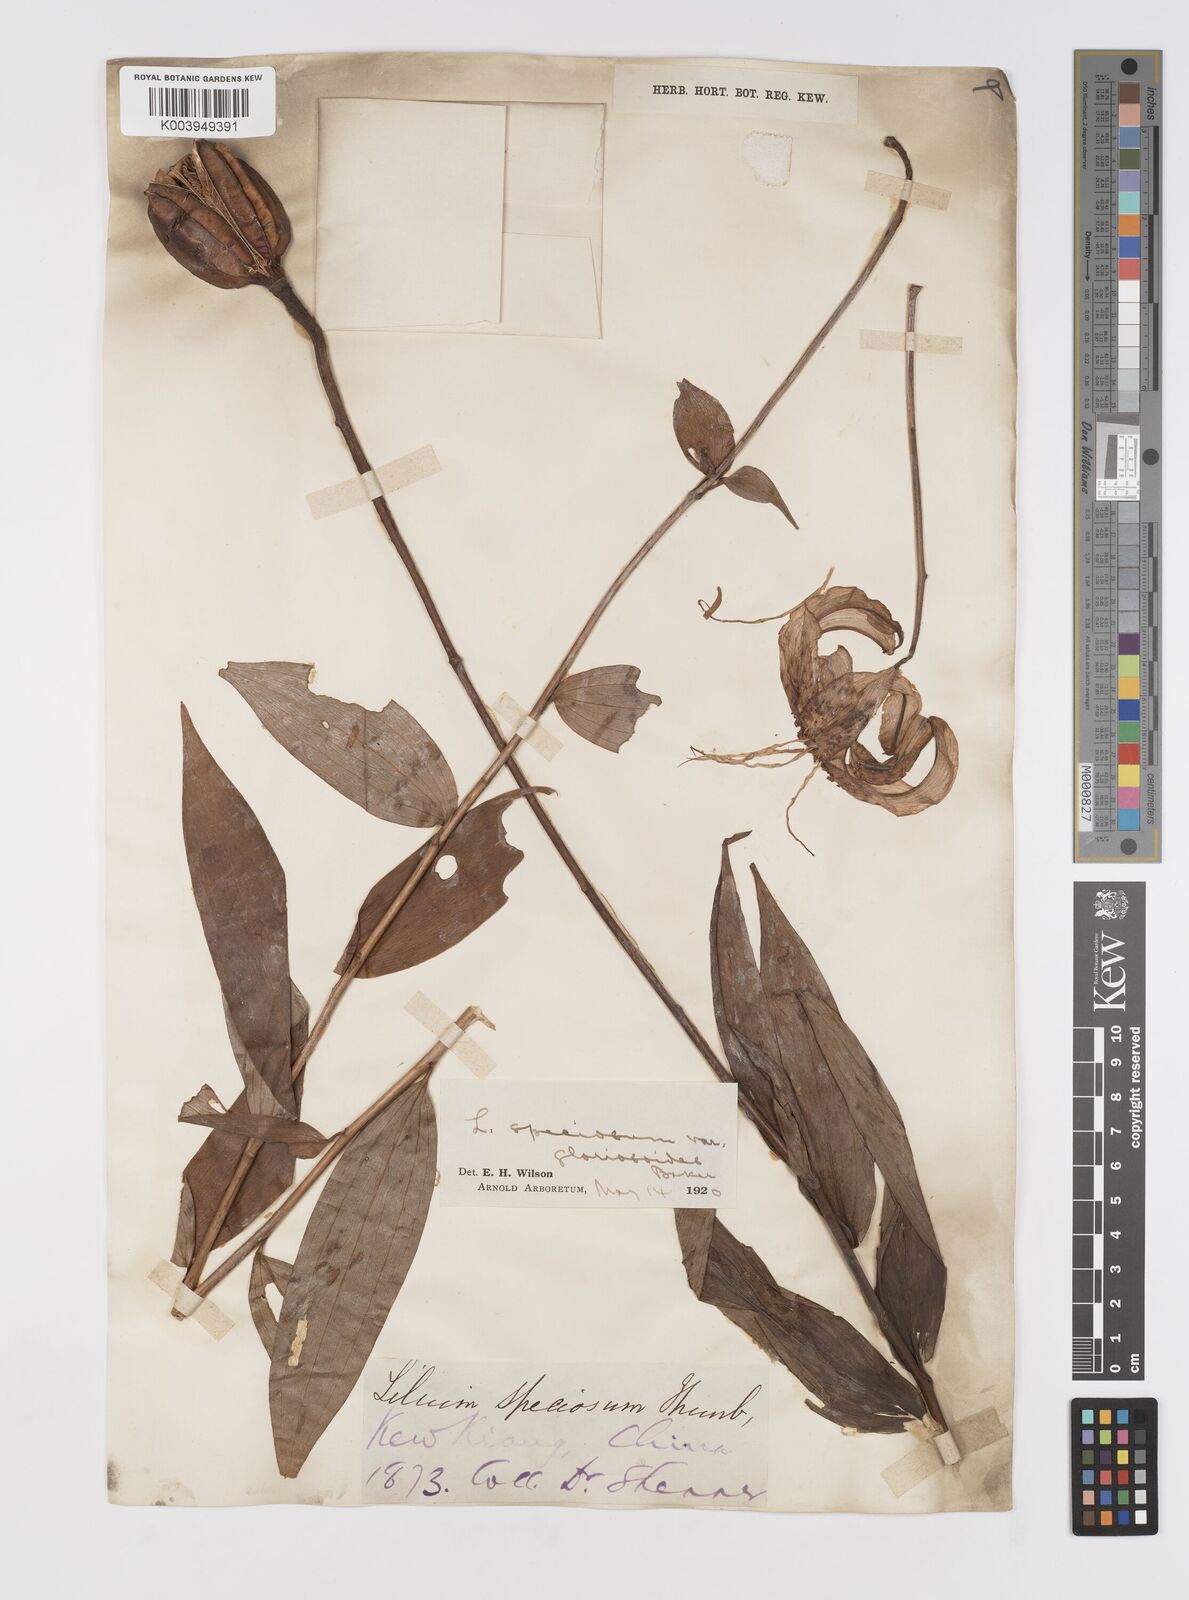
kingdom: Plantae
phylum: Tracheophyta
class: Liliopsida
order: Liliales
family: Liliaceae
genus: Lilium
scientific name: Lilium speciosum
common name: Japanese lily
